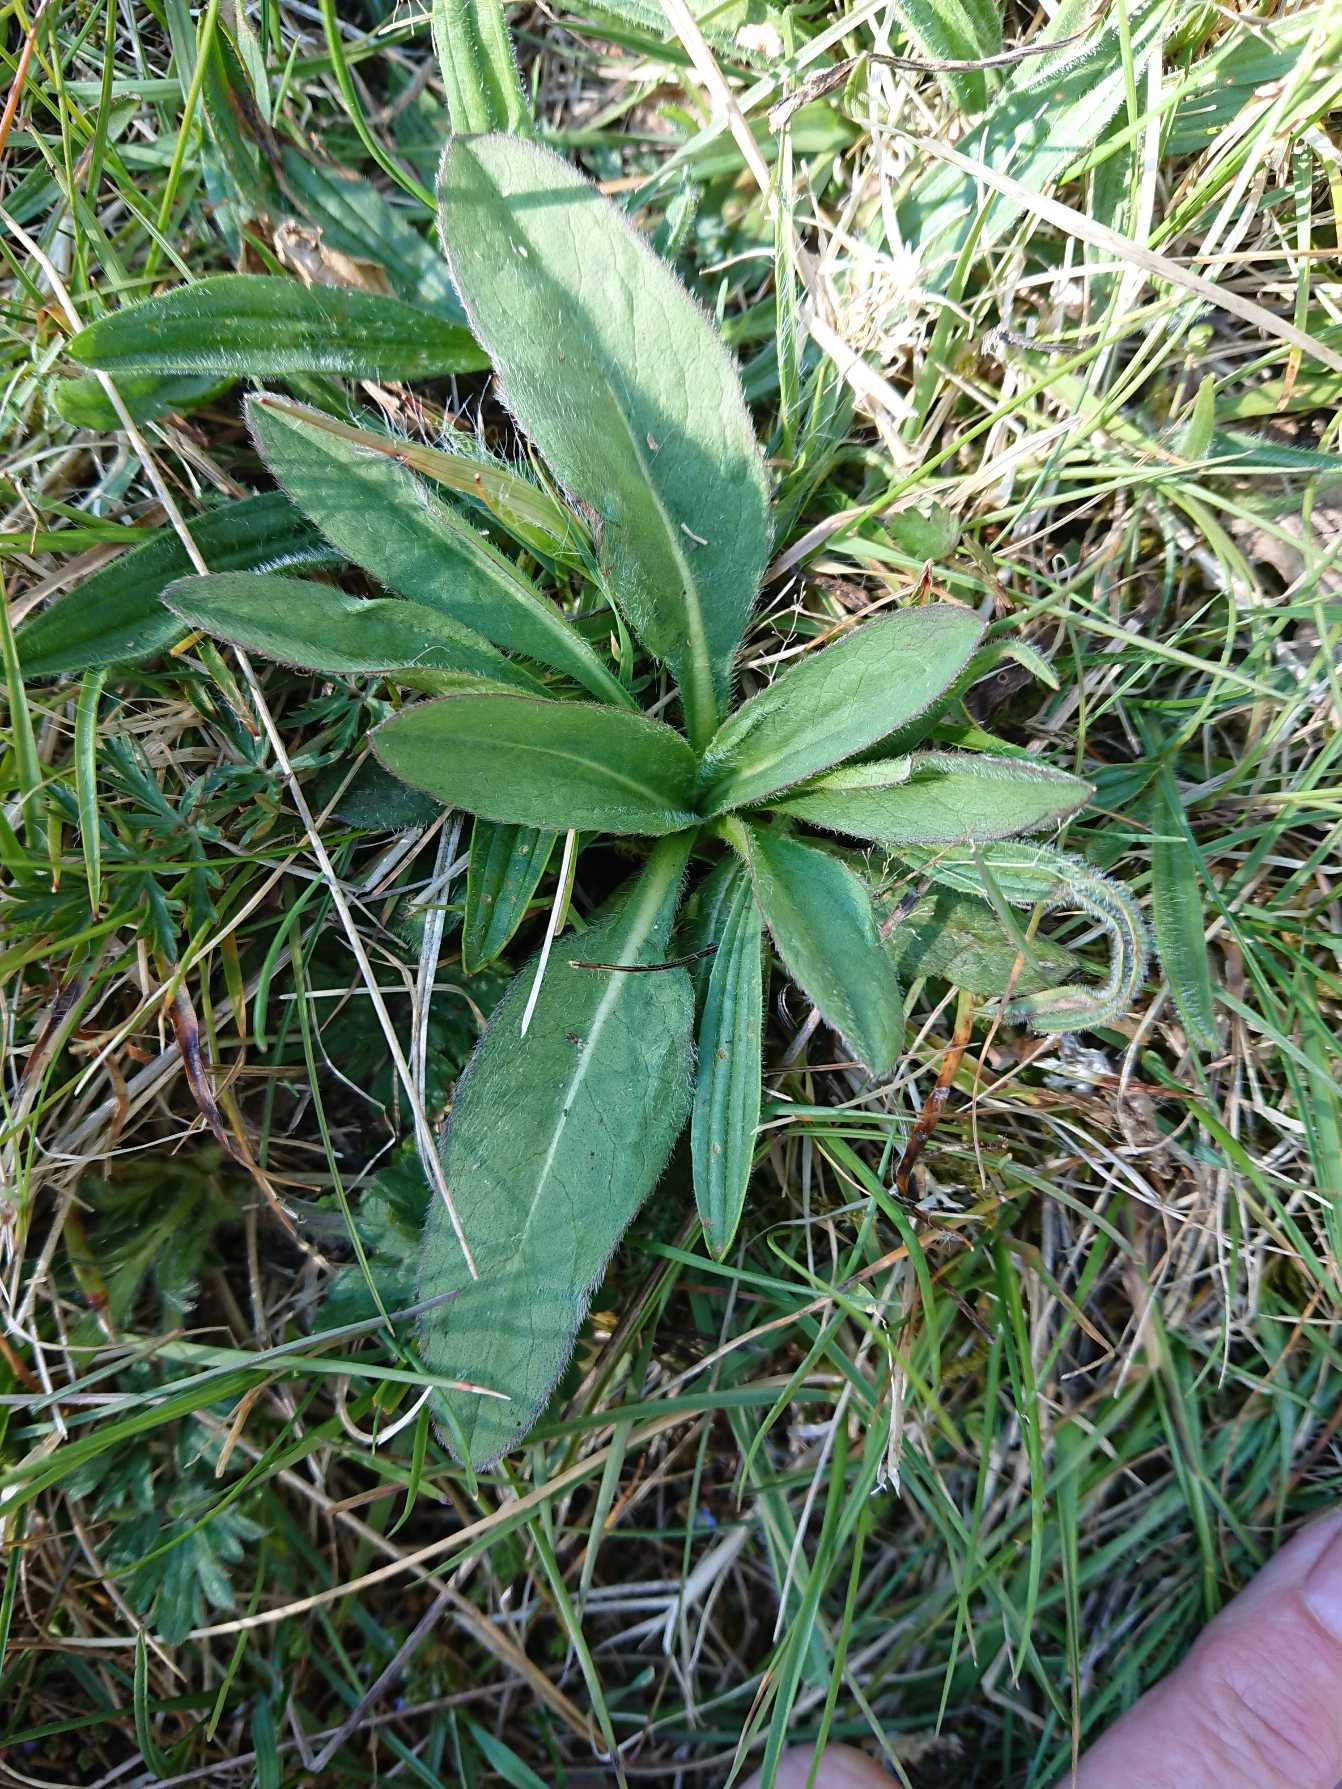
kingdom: Plantae
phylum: Tracheophyta
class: Magnoliopsida
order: Dipsacales
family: Caprifoliaceae
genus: Succisa
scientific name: Succisa pratensis
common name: Djævelsbid
